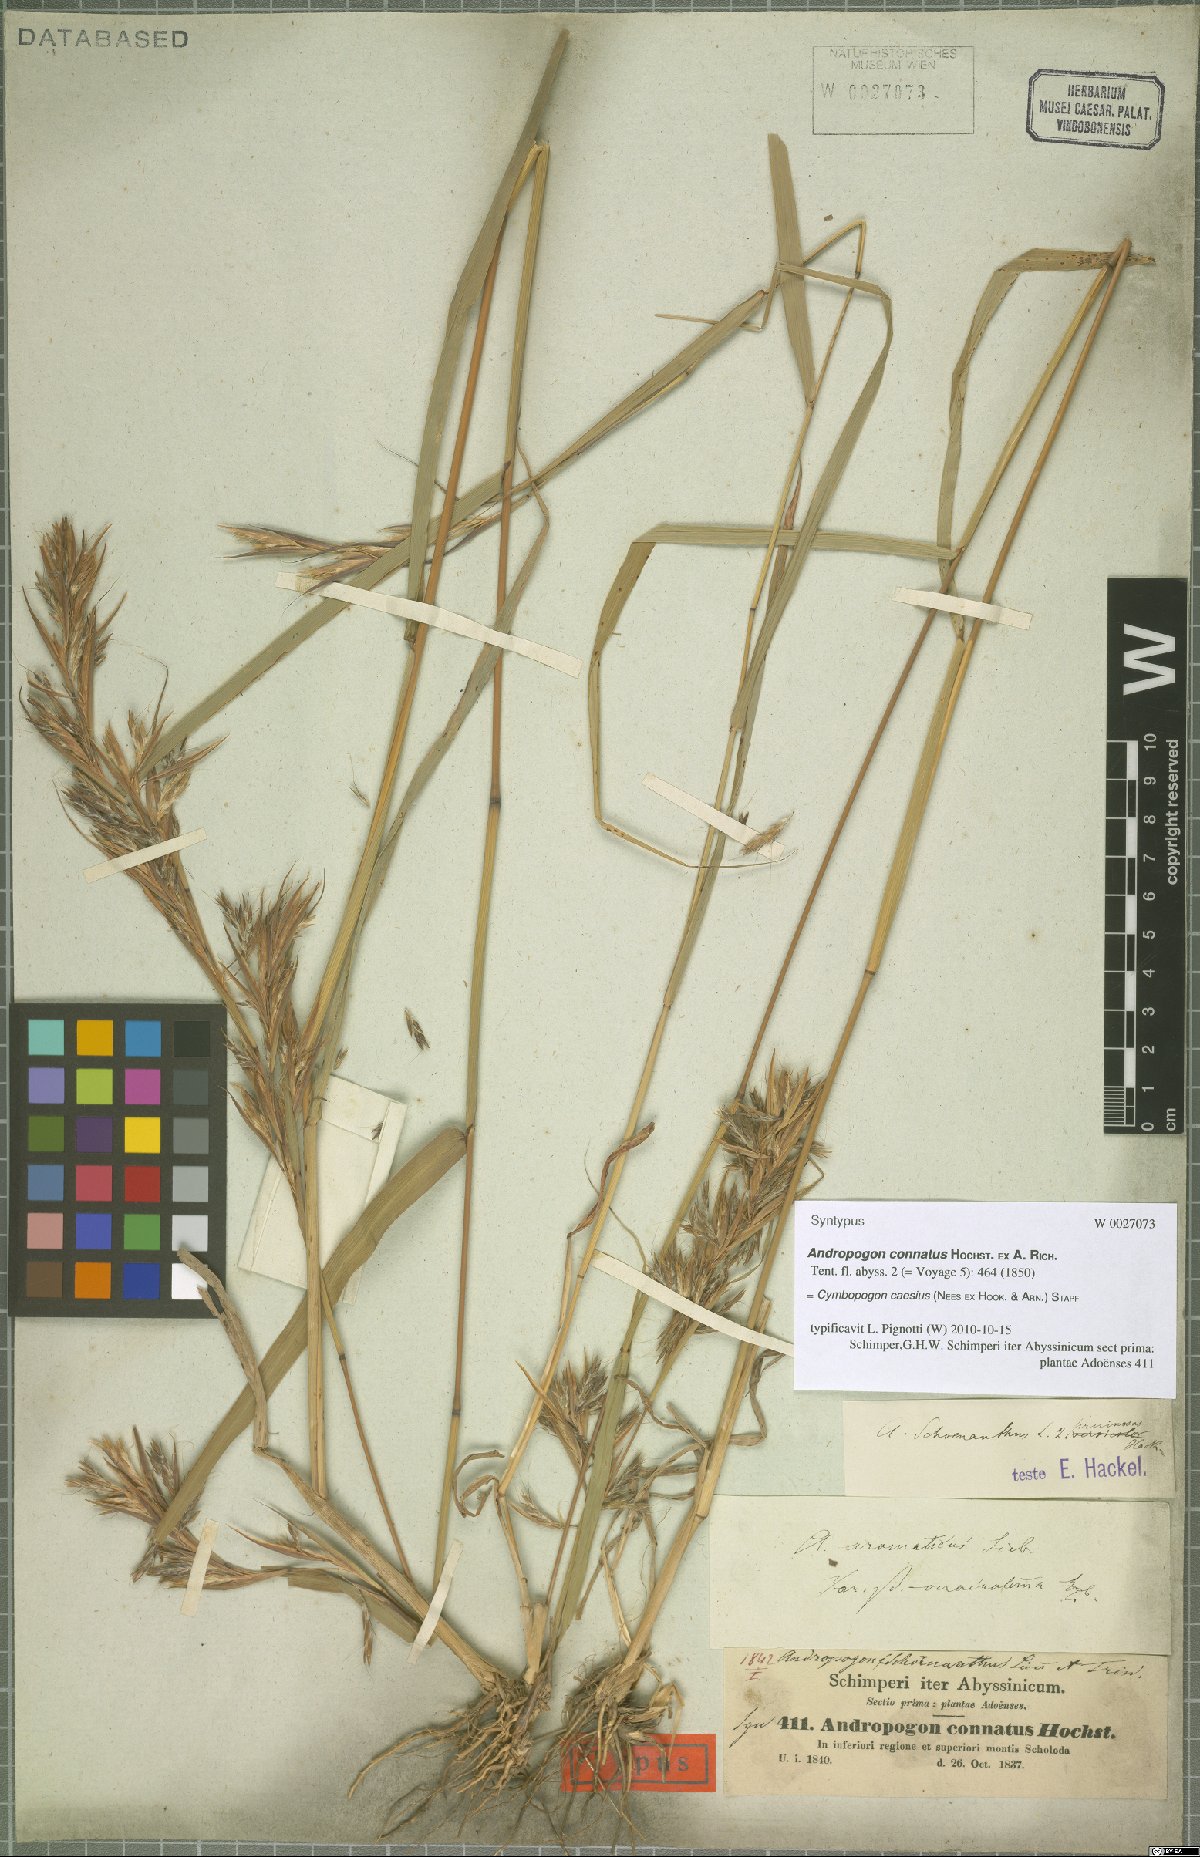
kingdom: Plantae
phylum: Tracheophyta
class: Liliopsida
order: Poales
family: Poaceae
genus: Cymbopogon
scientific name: Cymbopogon caesius
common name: Kachi grass
